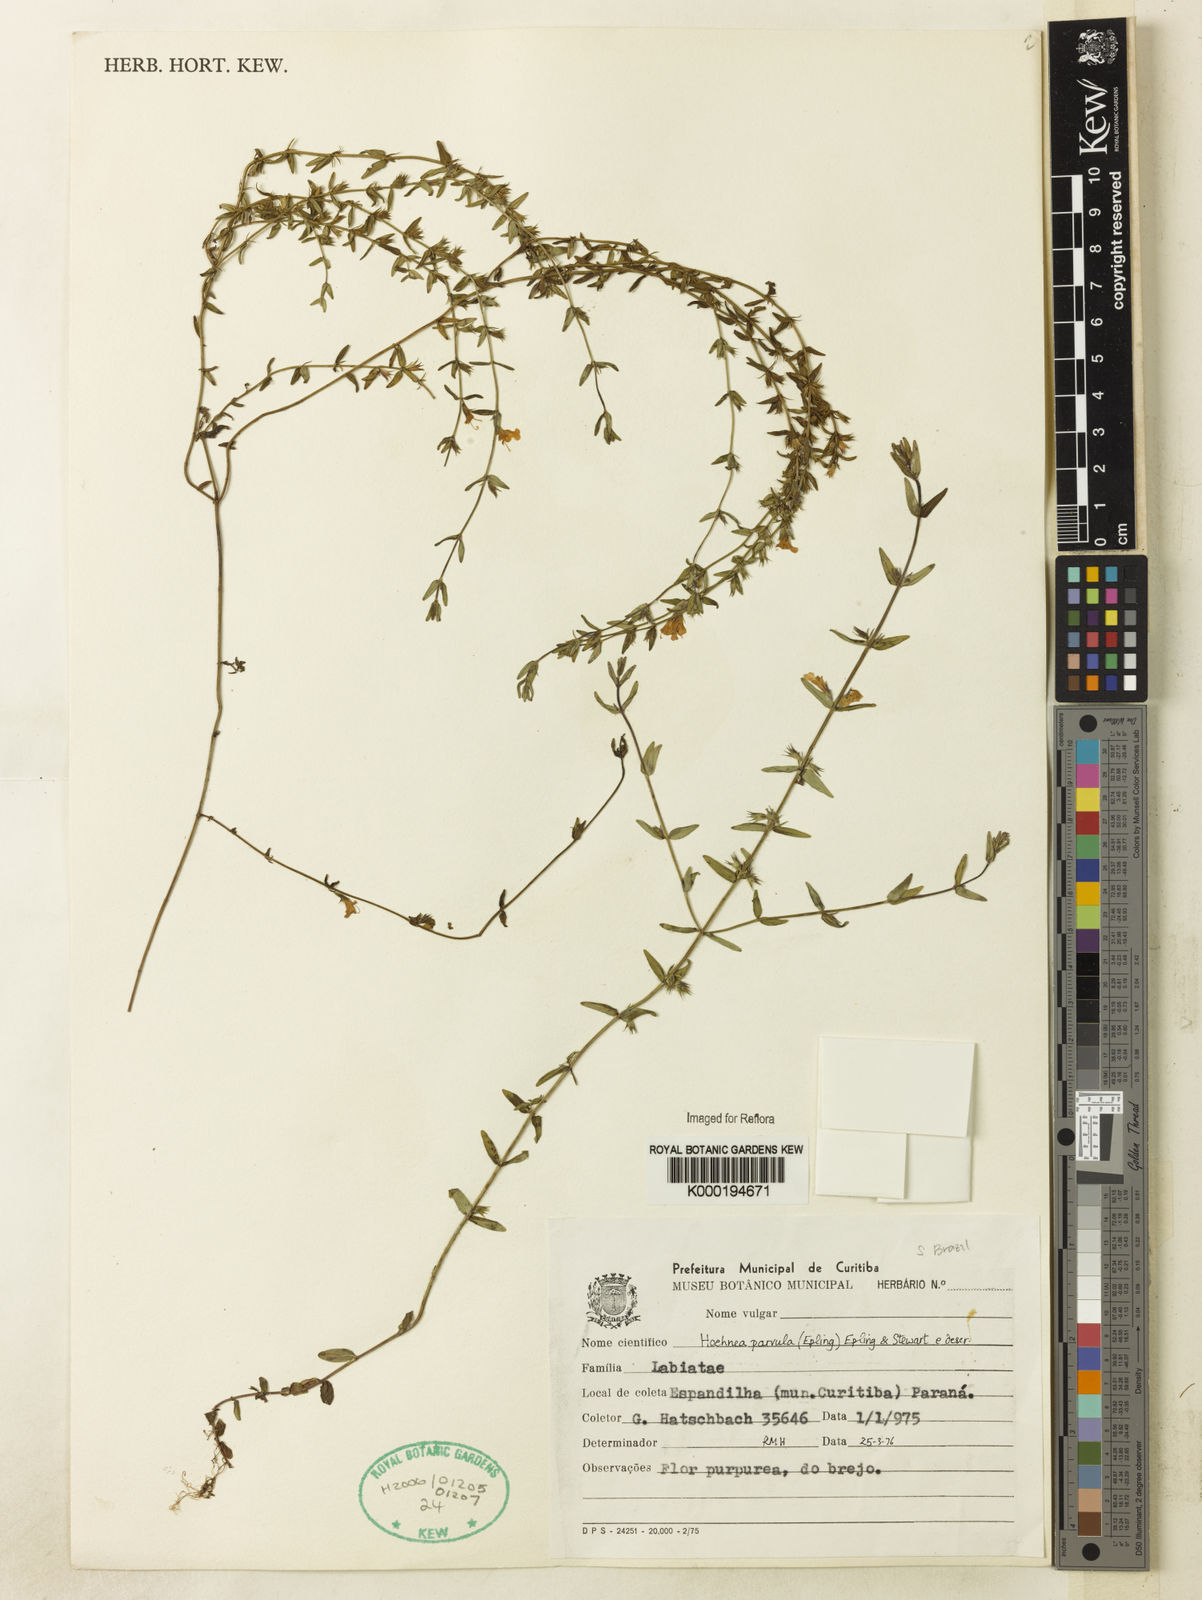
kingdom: Plantae
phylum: Tracheophyta
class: Magnoliopsida
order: Lamiales
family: Lamiaceae
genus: Hoehnea
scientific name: Hoehnea parvula
